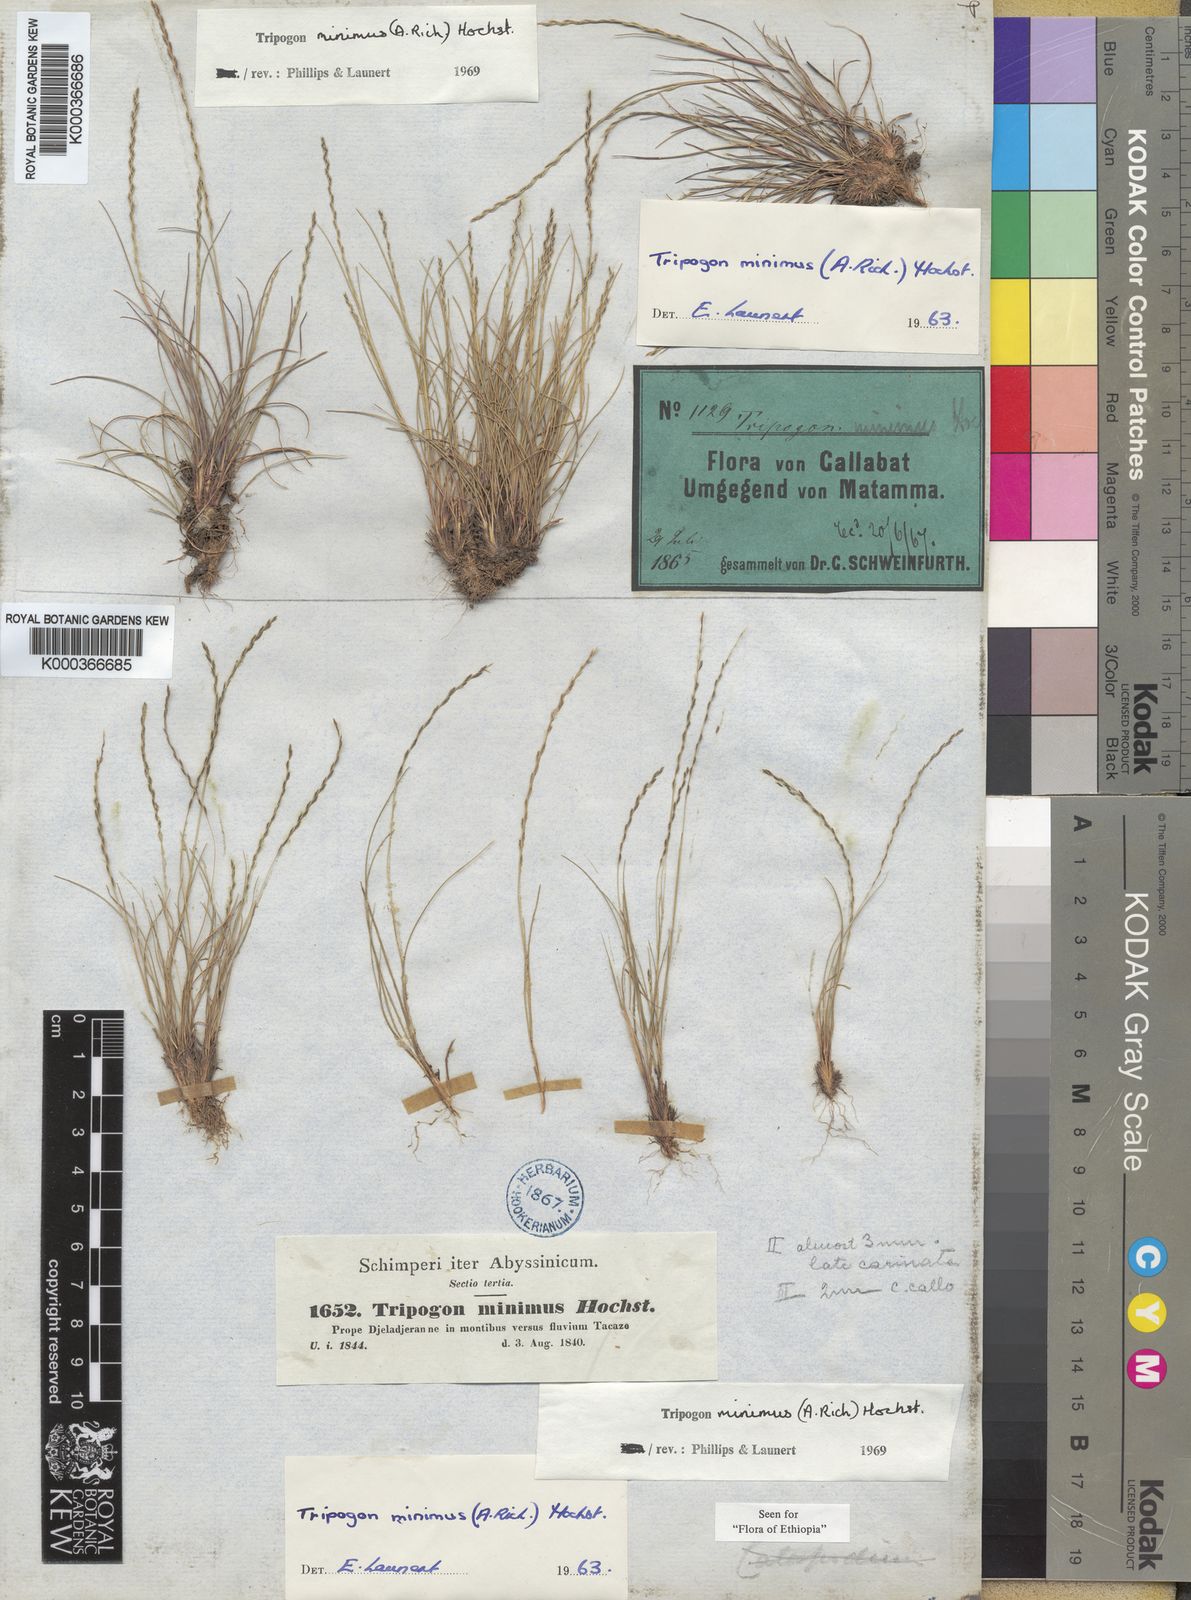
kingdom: Plantae
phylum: Tracheophyta
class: Liliopsida
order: Poales
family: Poaceae
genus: Tripogonella
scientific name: Tripogonella minima
